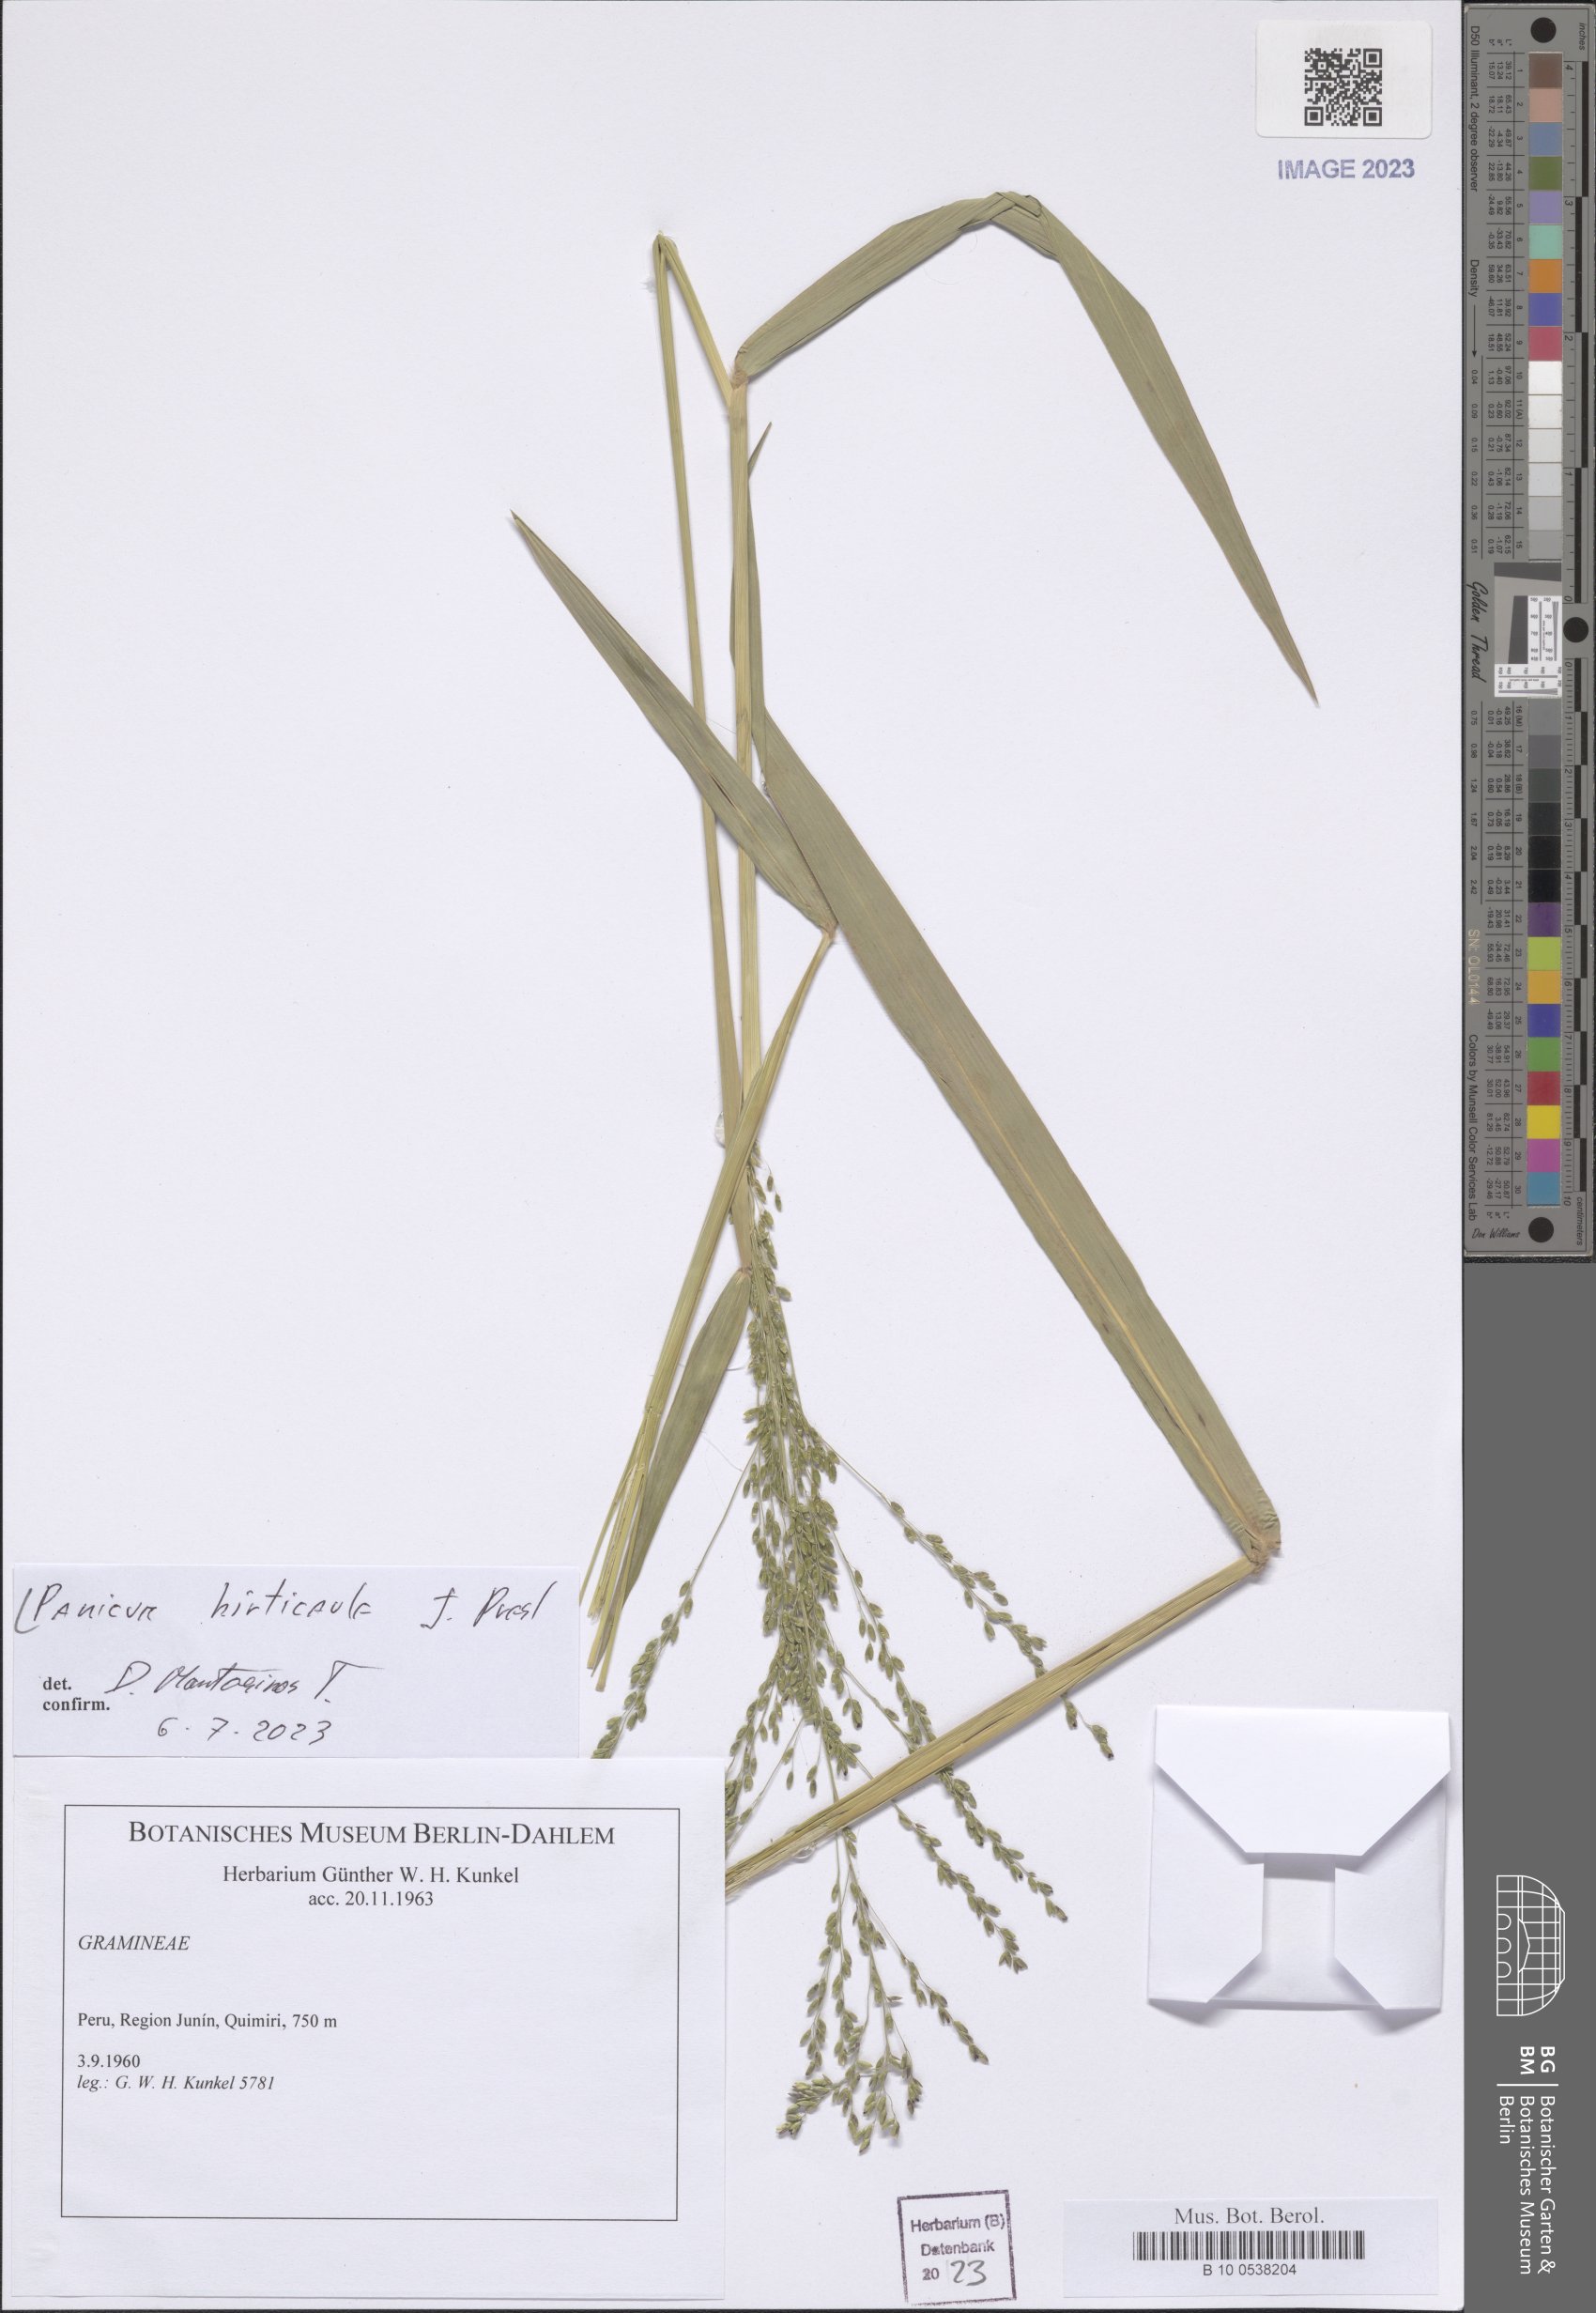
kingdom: Plantae
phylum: Tracheophyta
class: Liliopsida
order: Poales
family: Poaceae
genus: Panicum
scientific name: Panicum hirticaule
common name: Rough-stalk witchgrass
